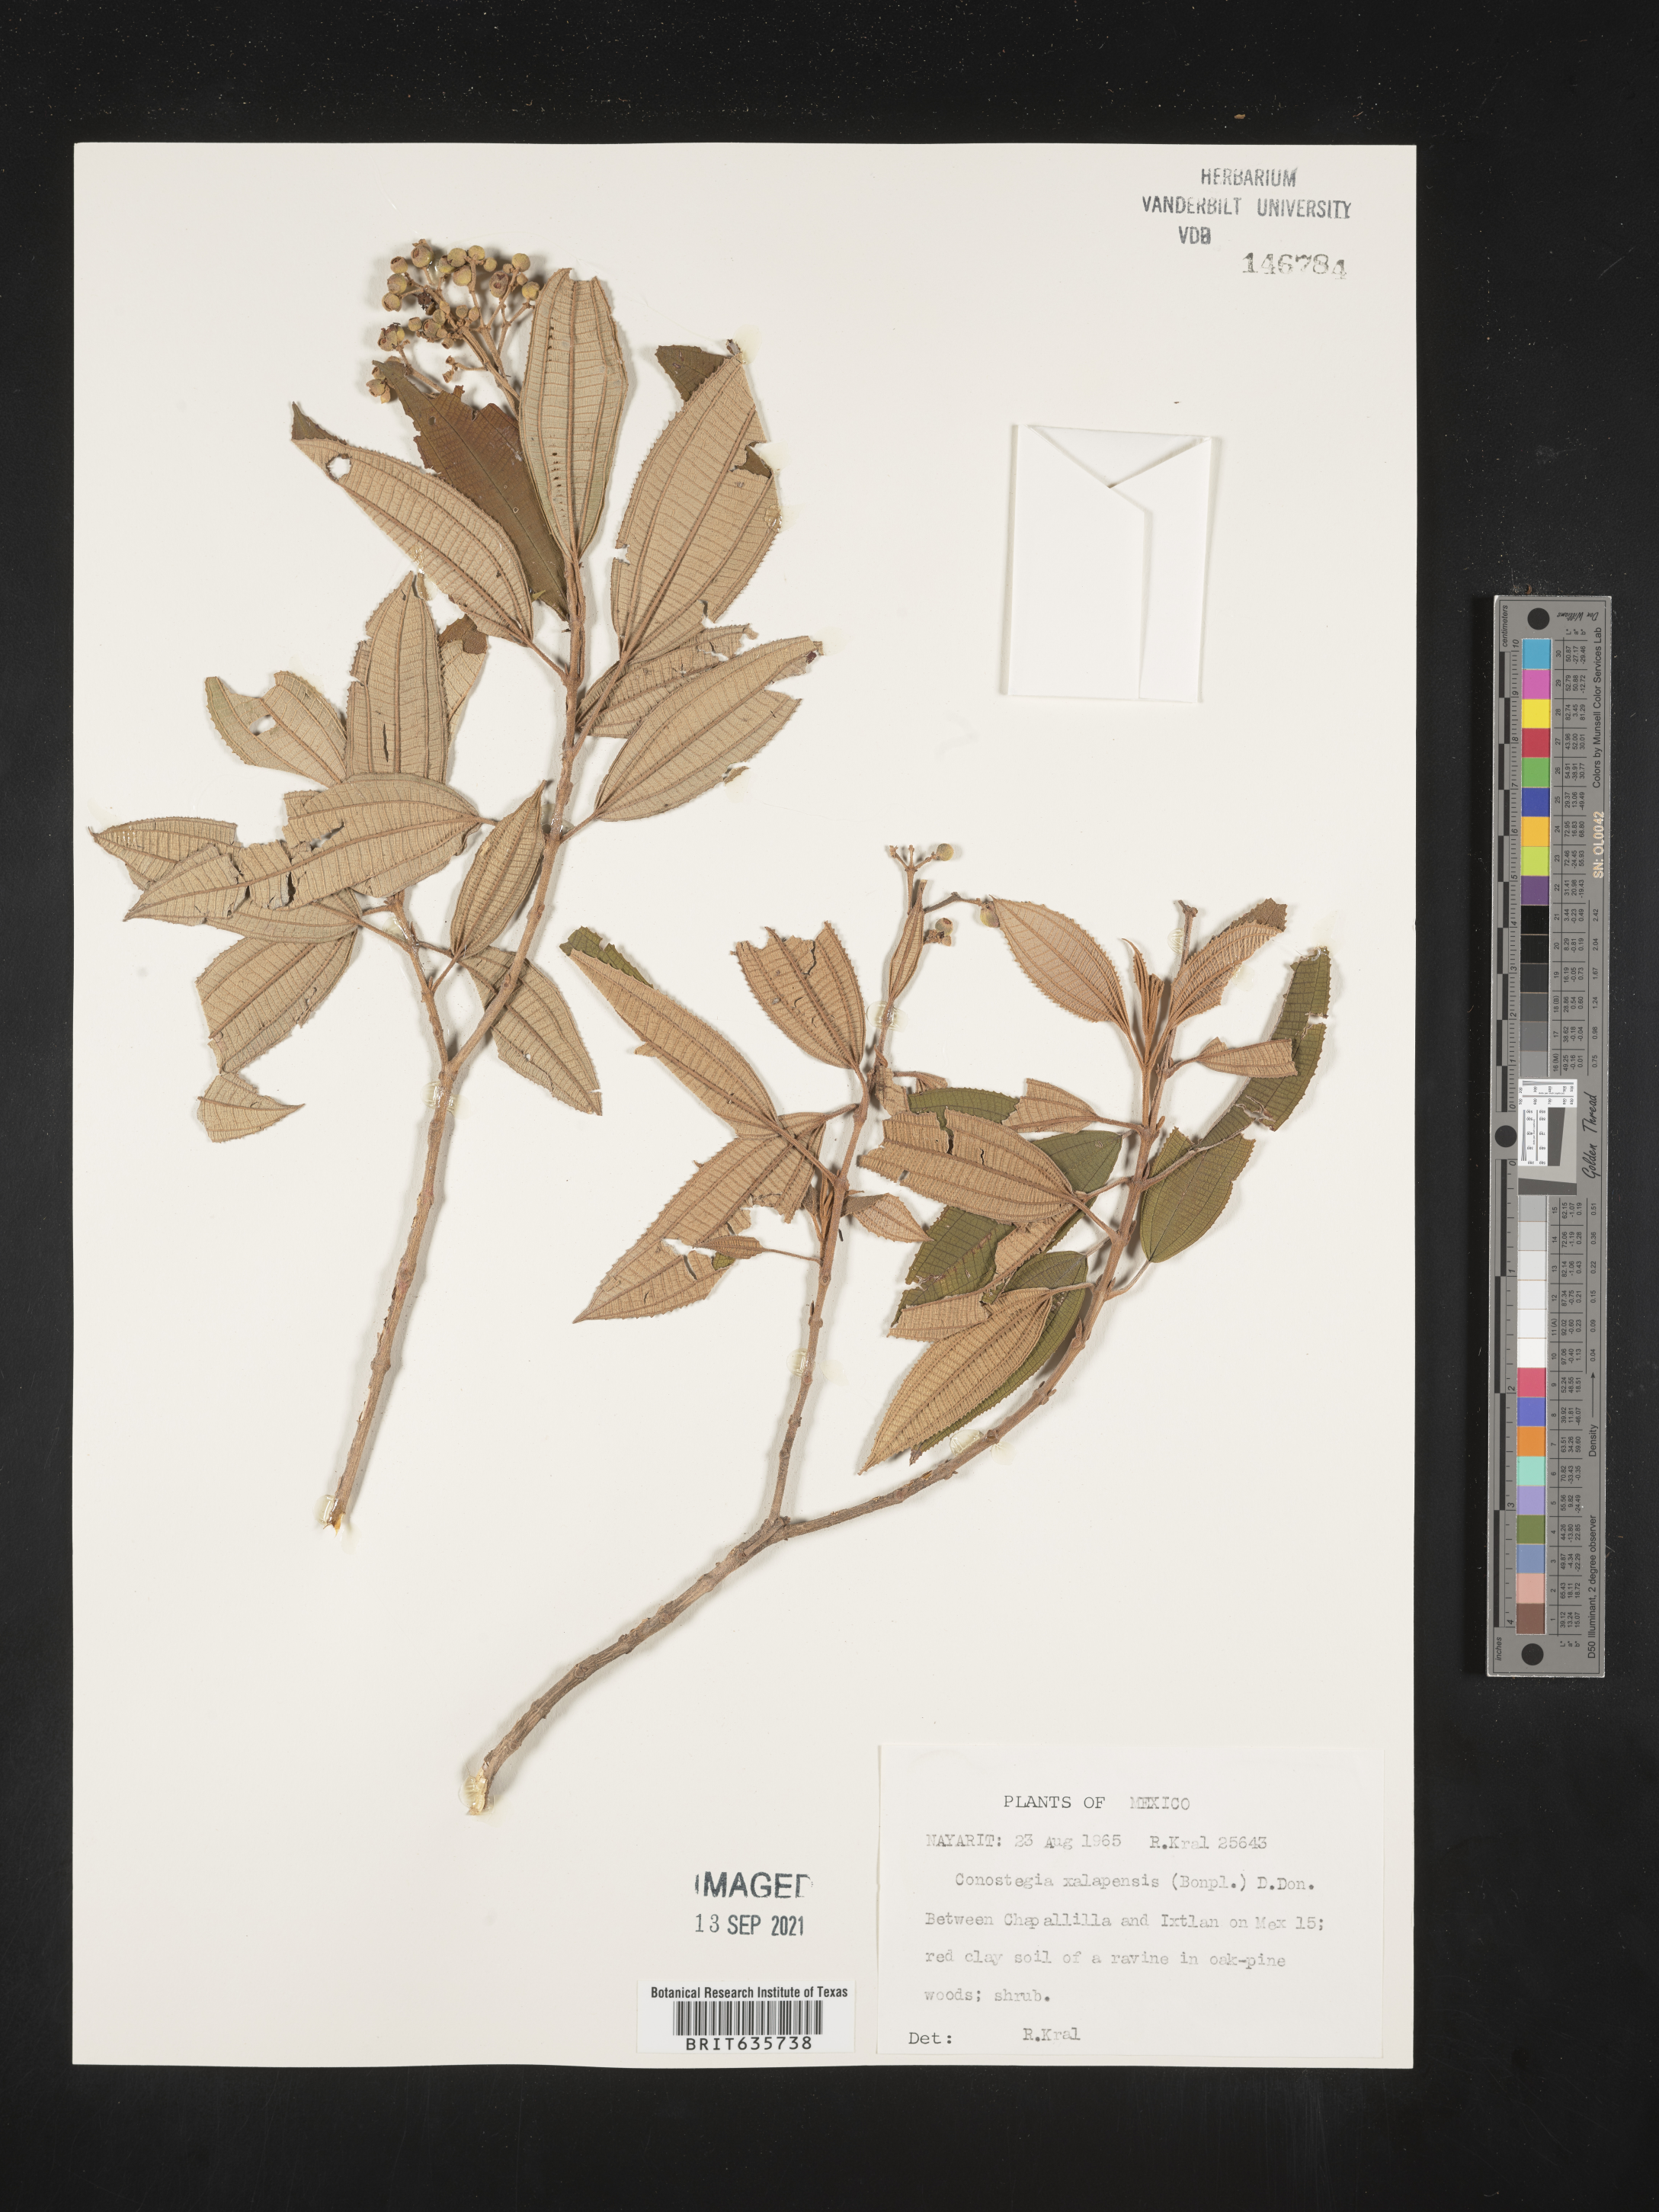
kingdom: Plantae
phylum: Tracheophyta
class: Magnoliopsida
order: Myrtales
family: Melastomataceae
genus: Miconia
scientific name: Miconia
